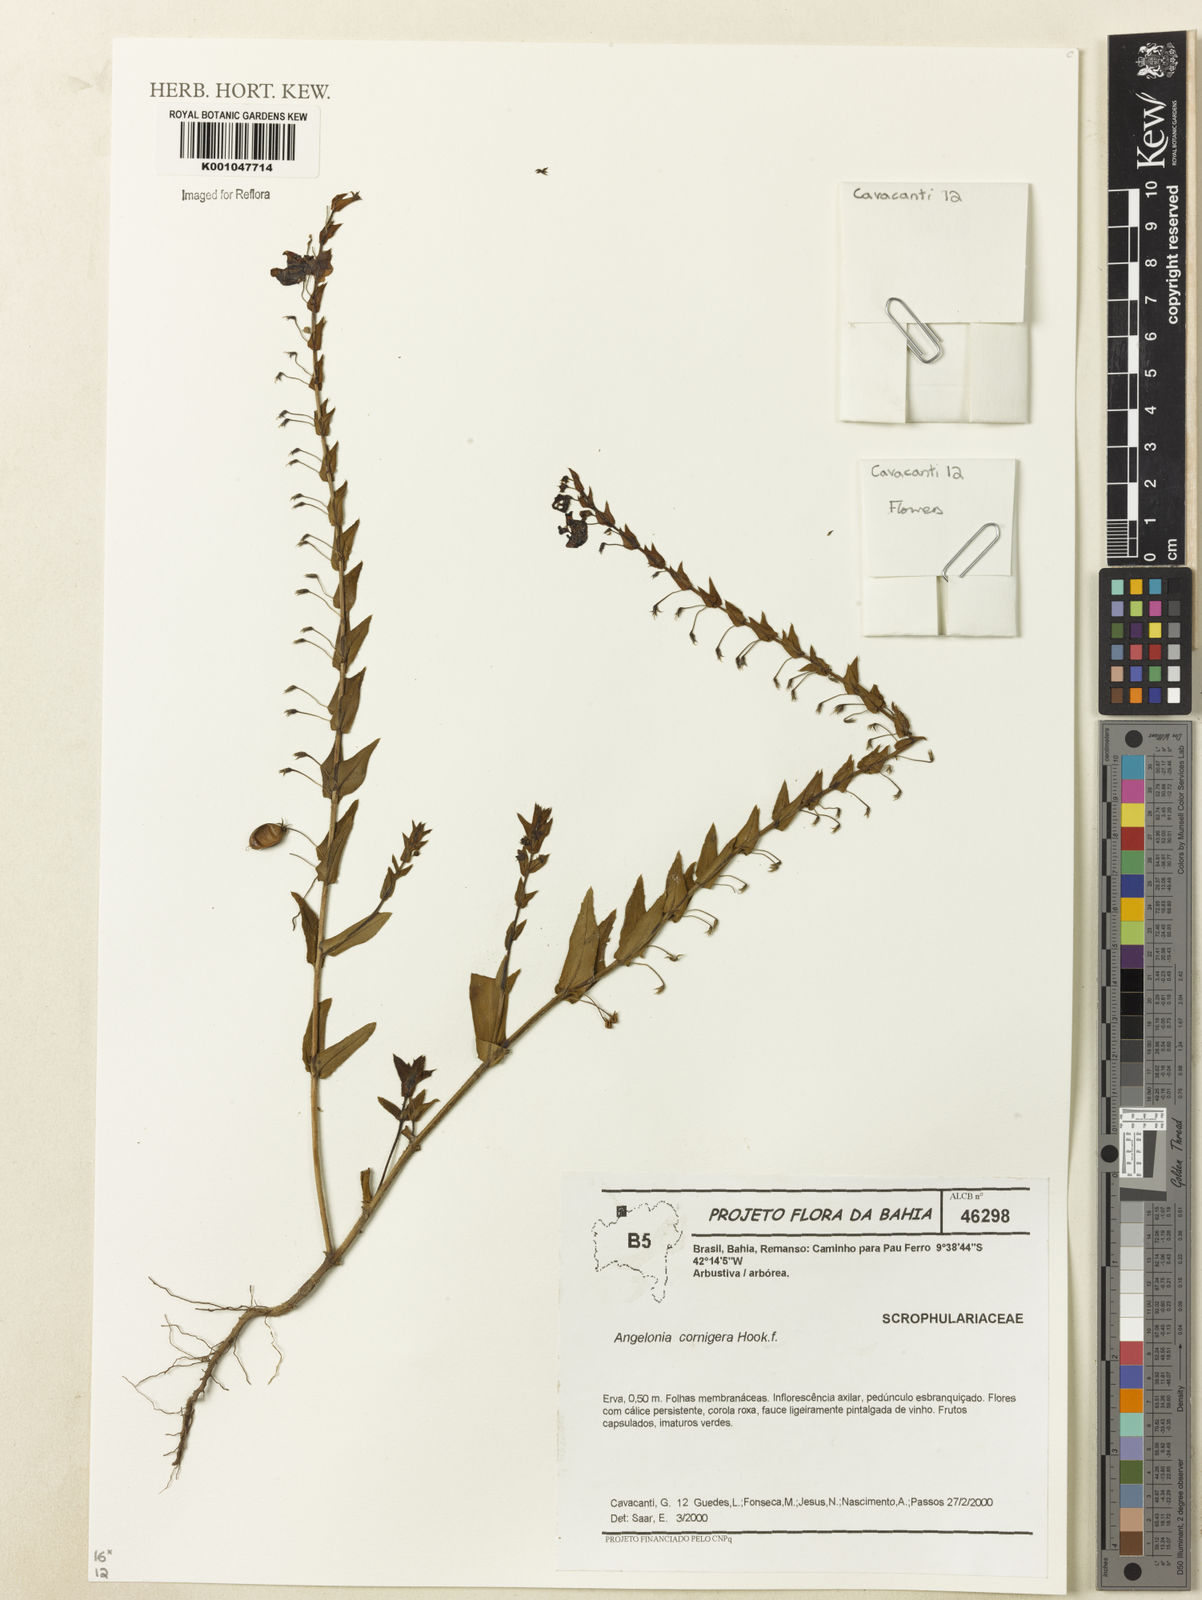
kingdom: Plantae
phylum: Tracheophyta
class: Magnoliopsida
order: Lamiales
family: Plantaginaceae
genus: Angelonia
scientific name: Angelonia cornigera
